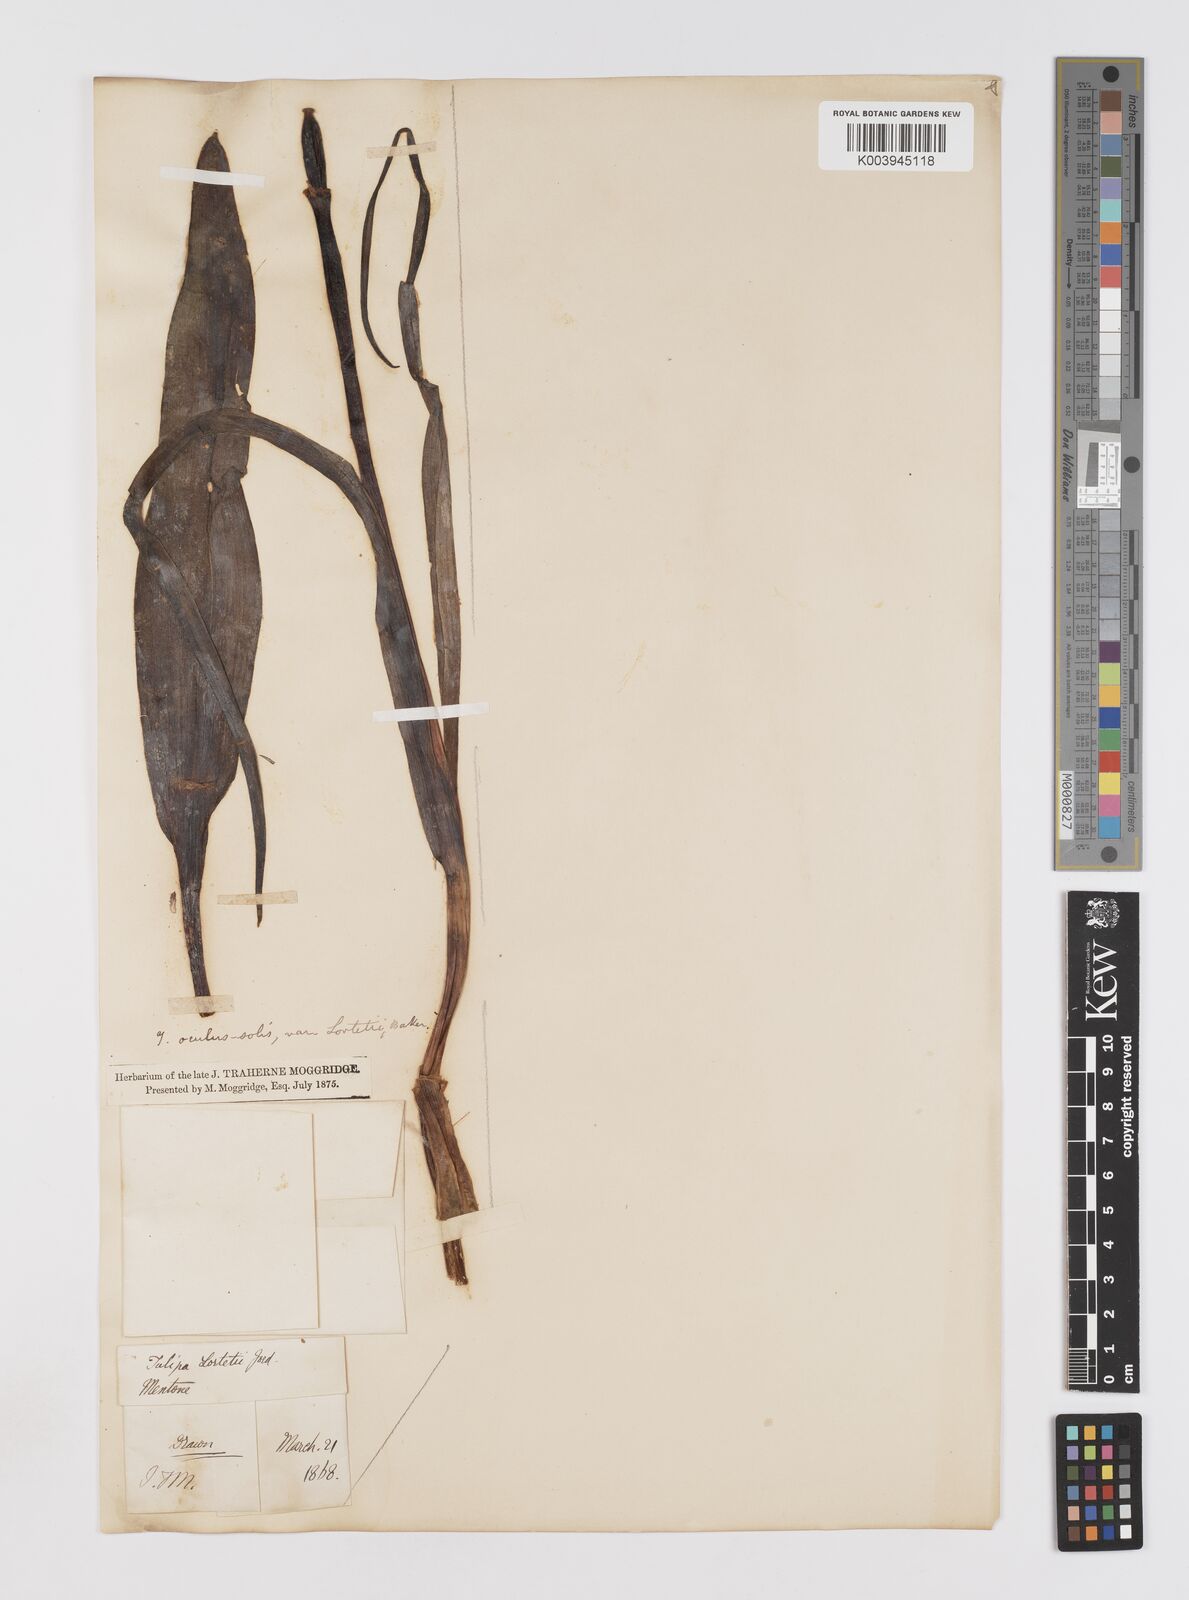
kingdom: Plantae
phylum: Tracheophyta
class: Liliopsida
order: Liliales
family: Liliaceae
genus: Tulipa
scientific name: Tulipa
